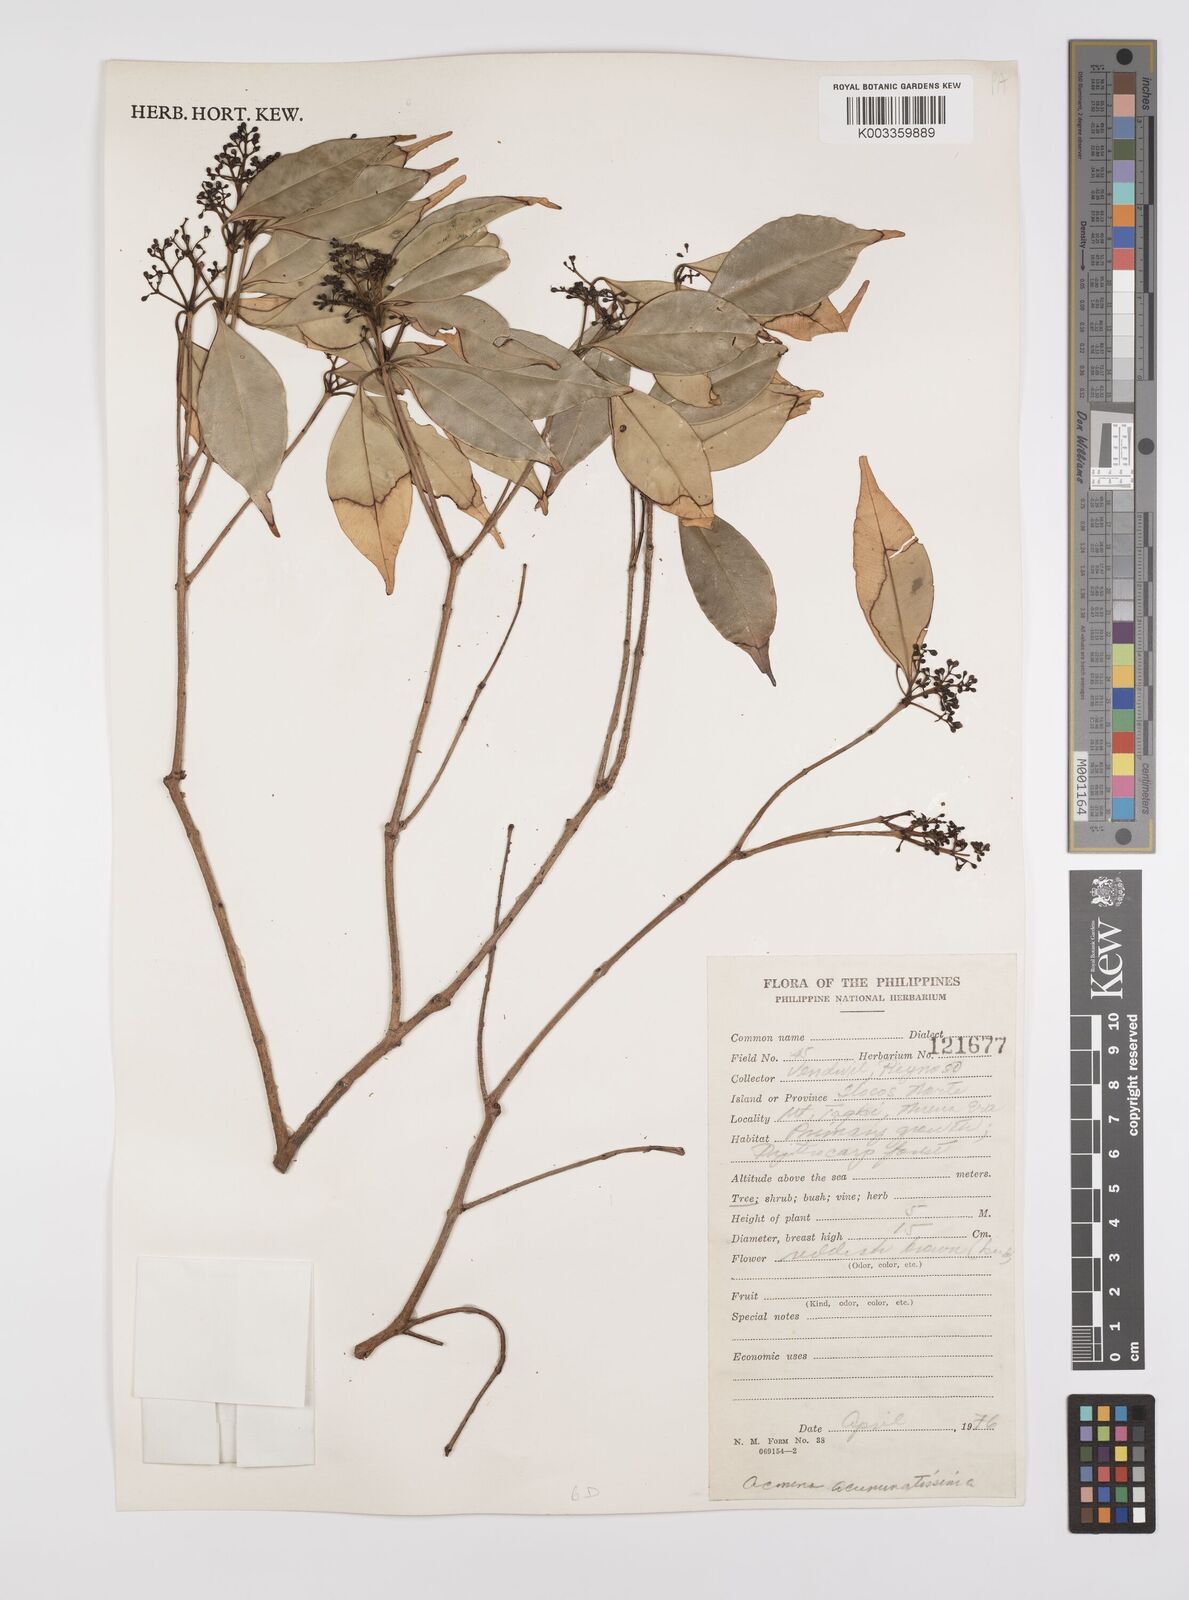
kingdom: Plantae
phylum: Tracheophyta
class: Magnoliopsida
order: Myrtales
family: Myrtaceae
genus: Syzygium
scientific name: Syzygium acuminatissimum
